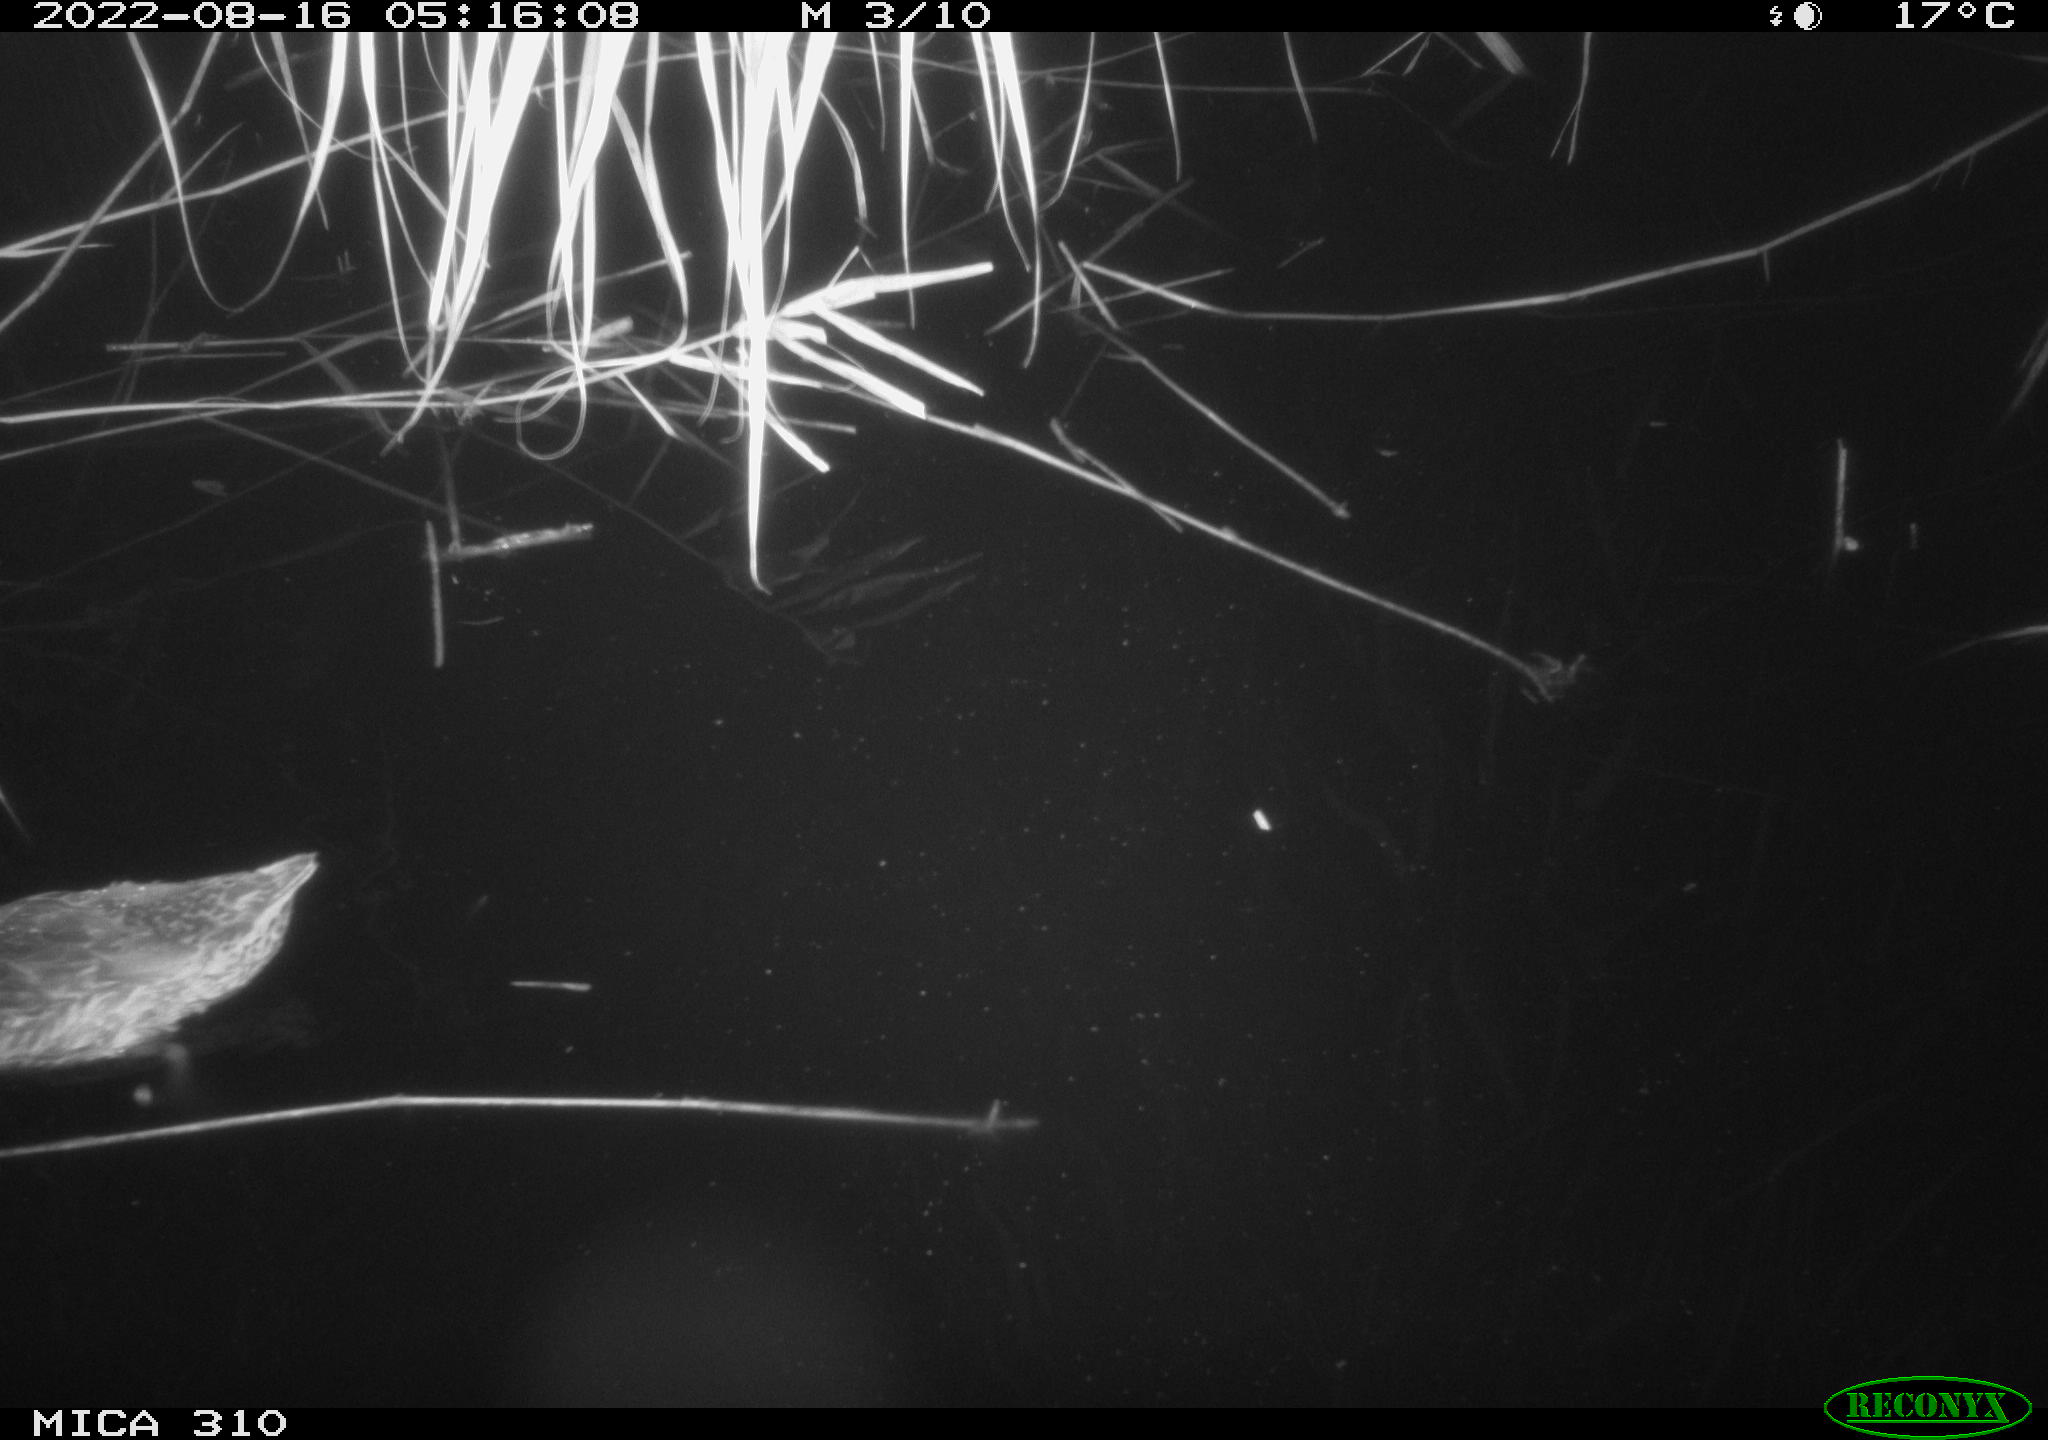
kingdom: Animalia
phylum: Chordata
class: Aves
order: Anseriformes
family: Anatidae
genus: Anas
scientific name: Anas platyrhynchos
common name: Mallard
